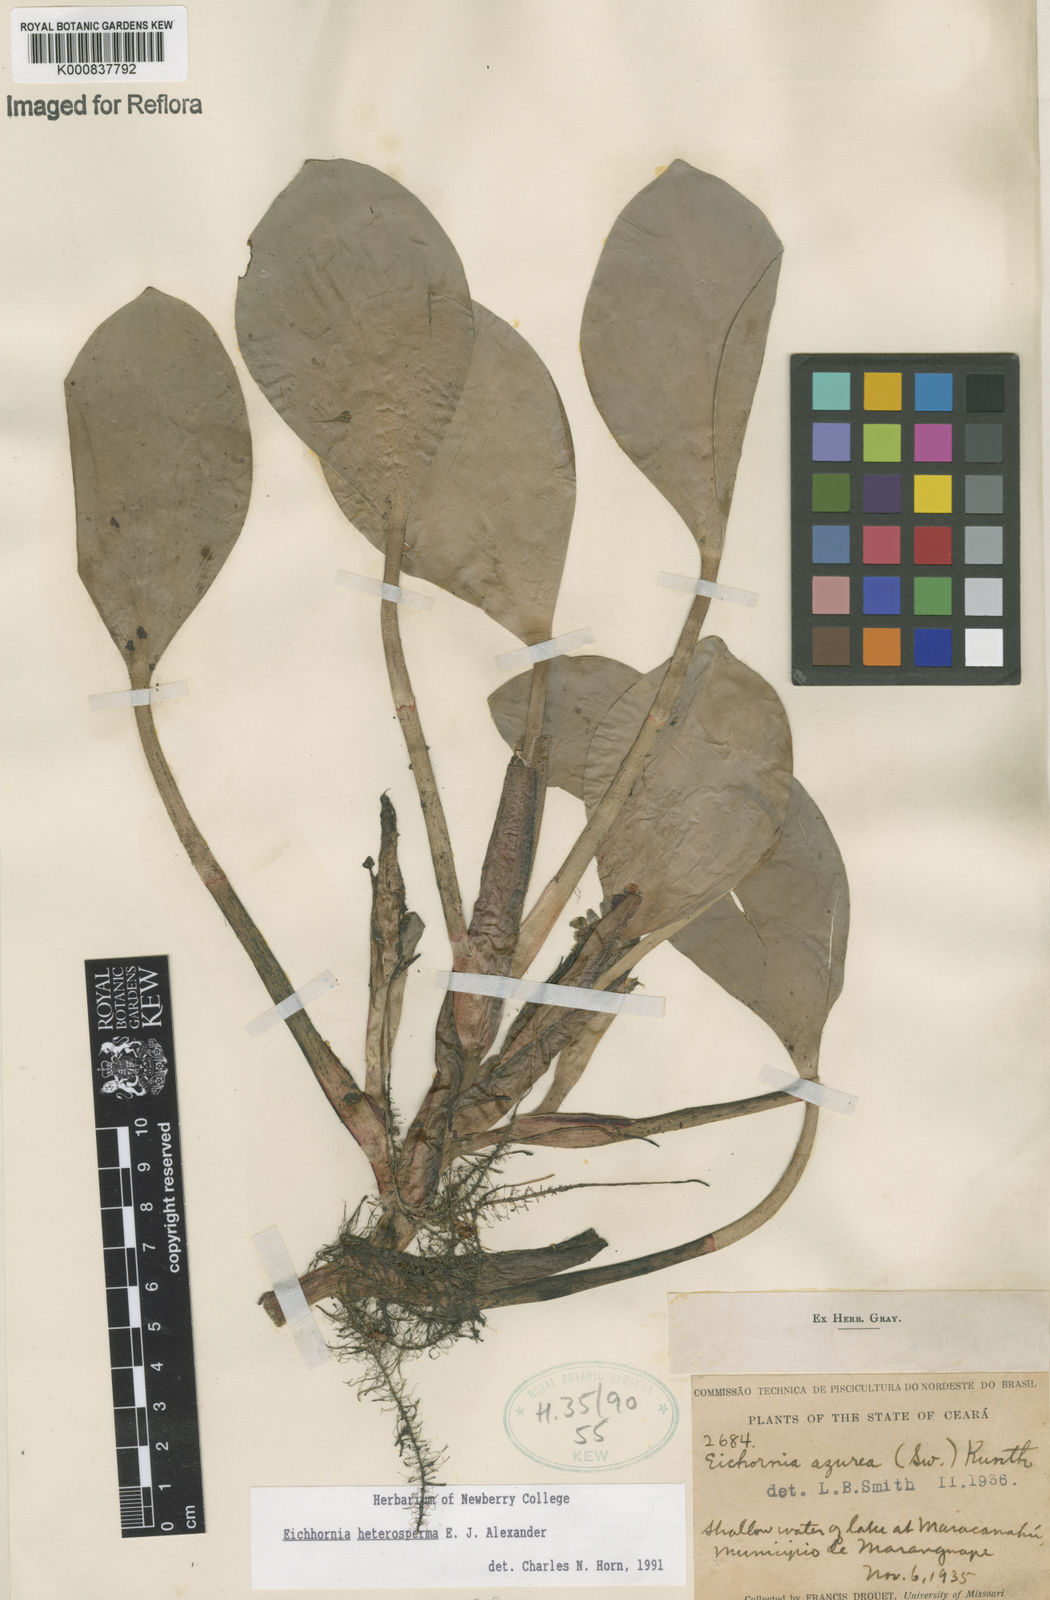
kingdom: Plantae
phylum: Tracheophyta
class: Liliopsida
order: Commelinales
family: Pontederiaceae
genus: Pontederia
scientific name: Pontederia heterosperma
